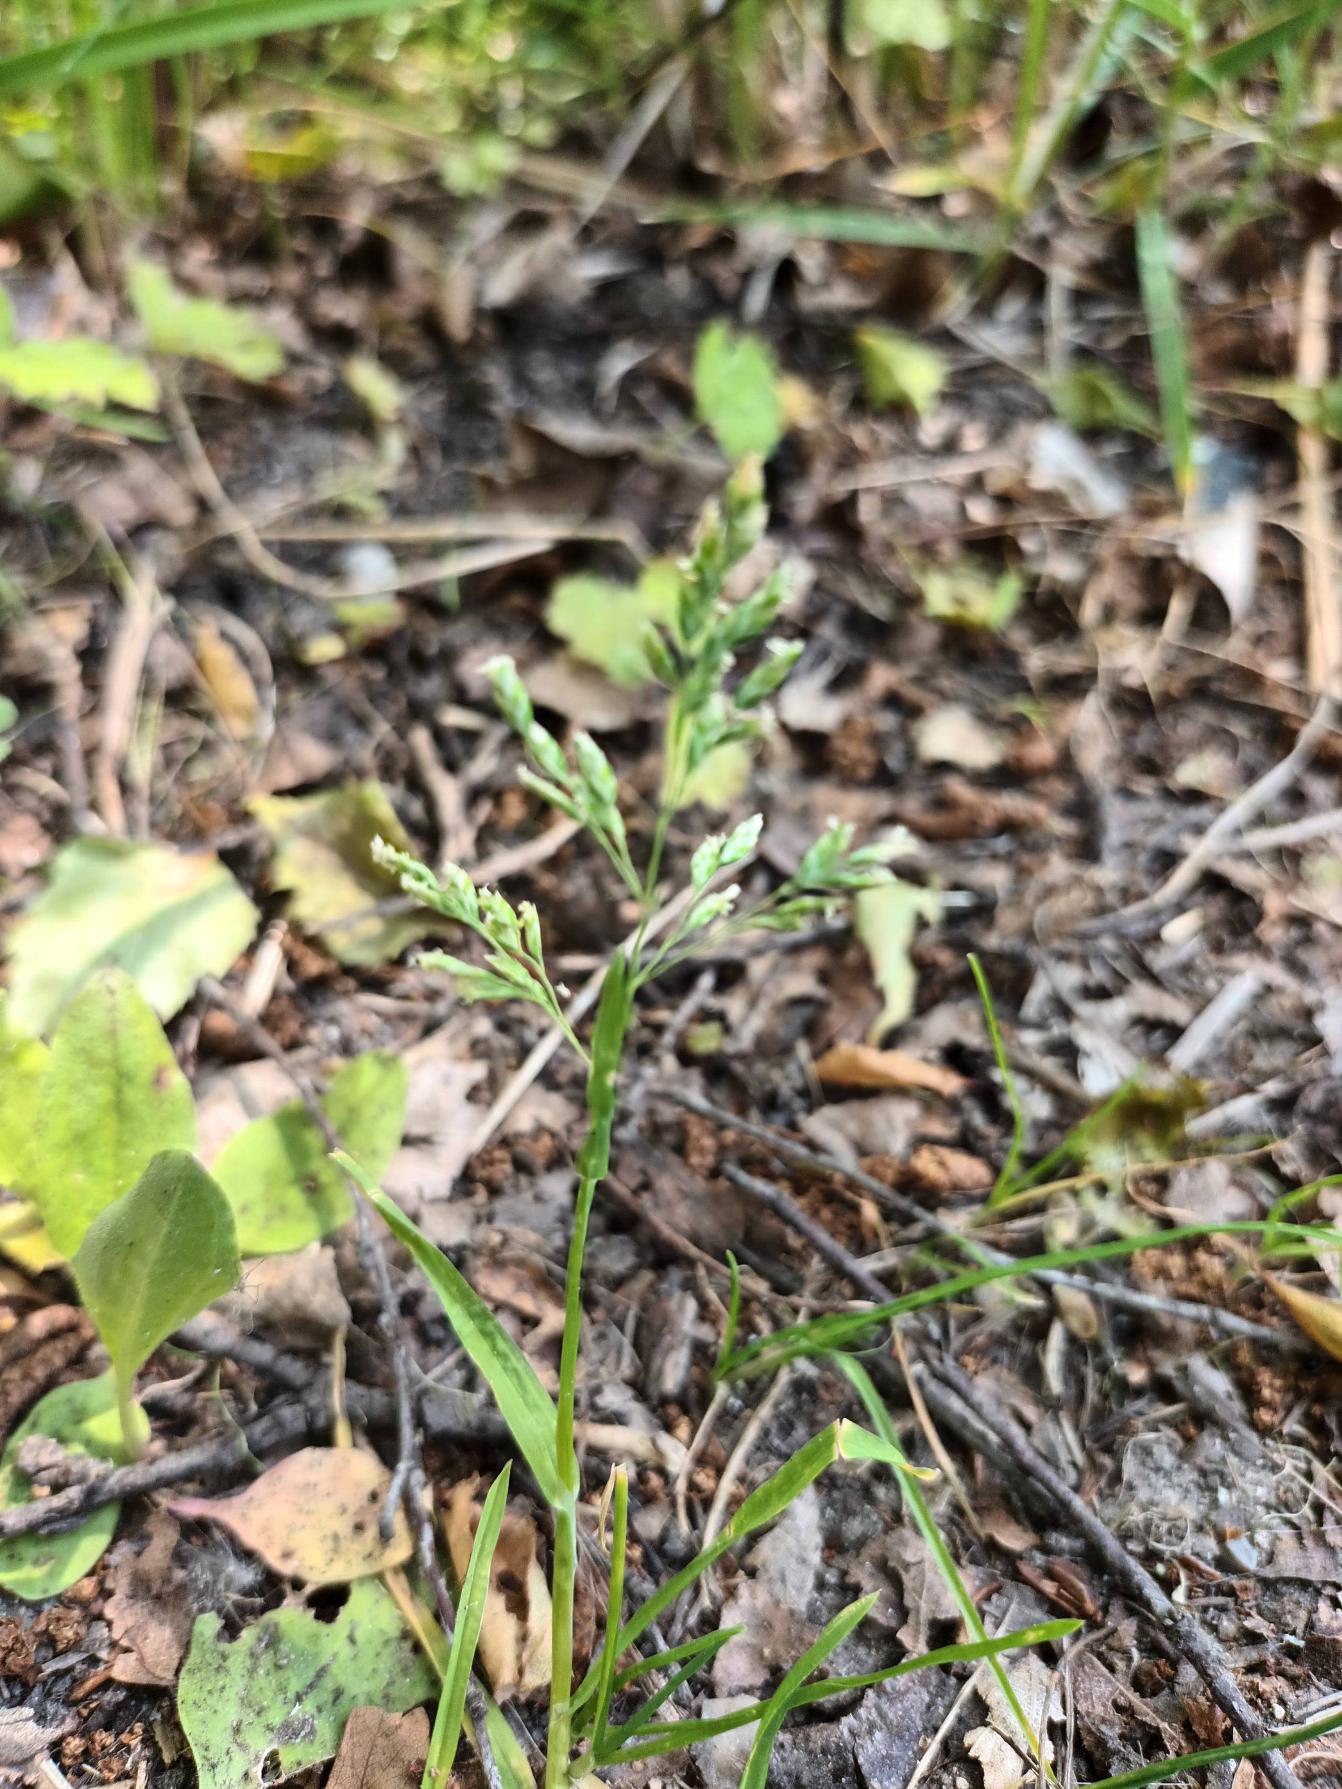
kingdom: Plantae
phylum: Tracheophyta
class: Liliopsida
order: Poales
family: Poaceae
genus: Poa
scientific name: Poa annua
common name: Enårig rapgræs
